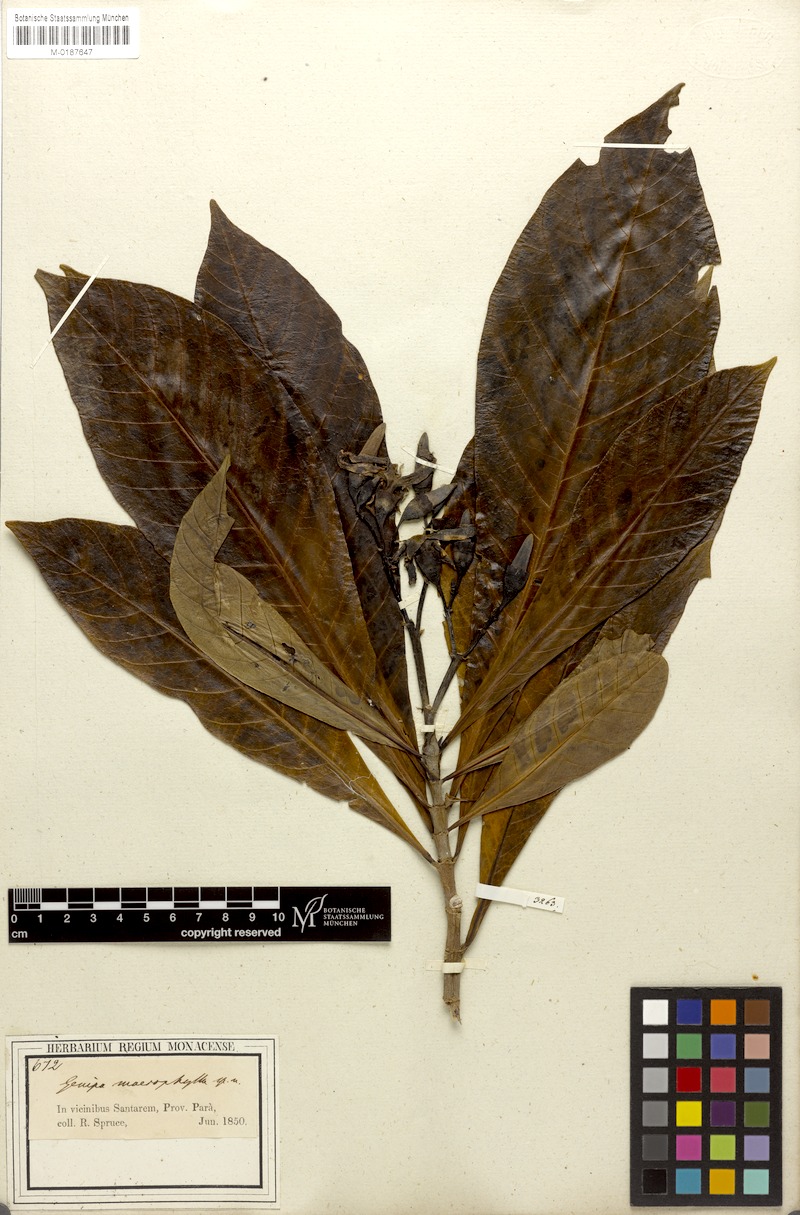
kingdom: Plantae
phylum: Tracheophyta
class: Magnoliopsida
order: Gentianales
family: Rubiaceae
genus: Genipa
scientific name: Genipa americana
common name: Genipap
